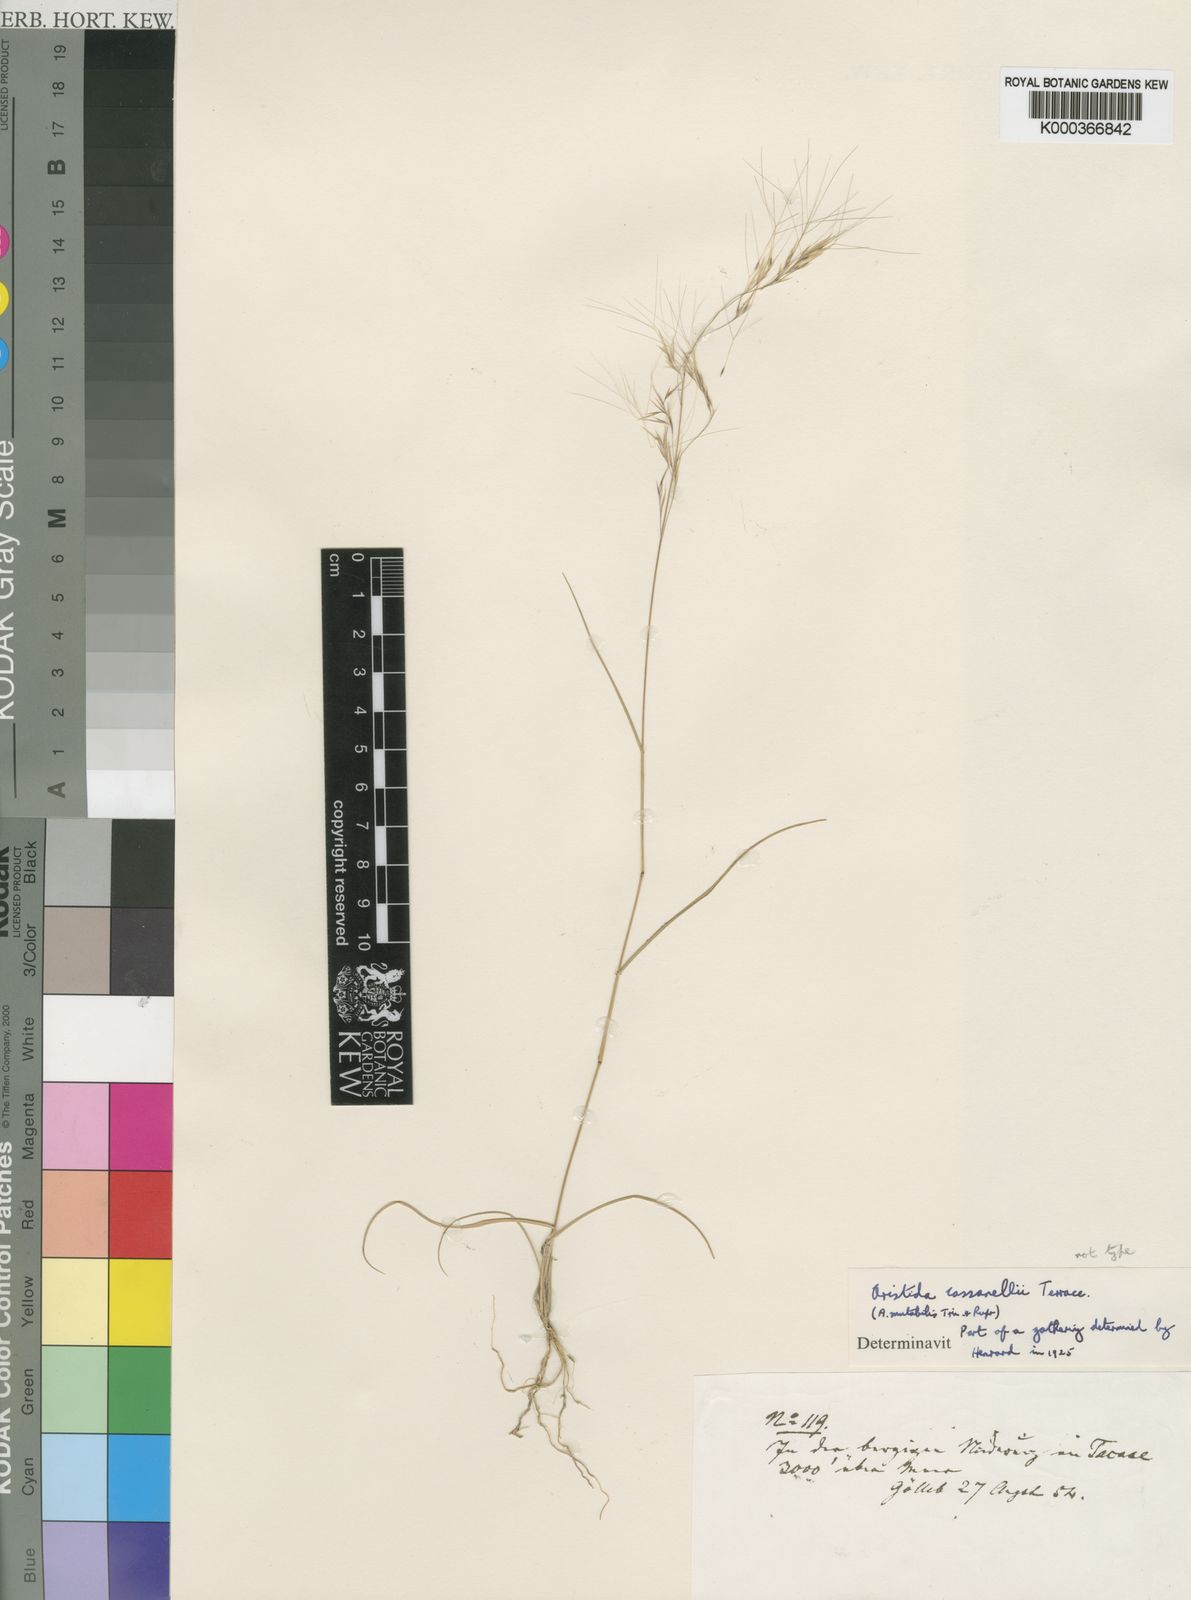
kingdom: Plantae
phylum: Tracheophyta
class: Liliopsida
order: Poales
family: Poaceae
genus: Aristida
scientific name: Aristida mutabilis
